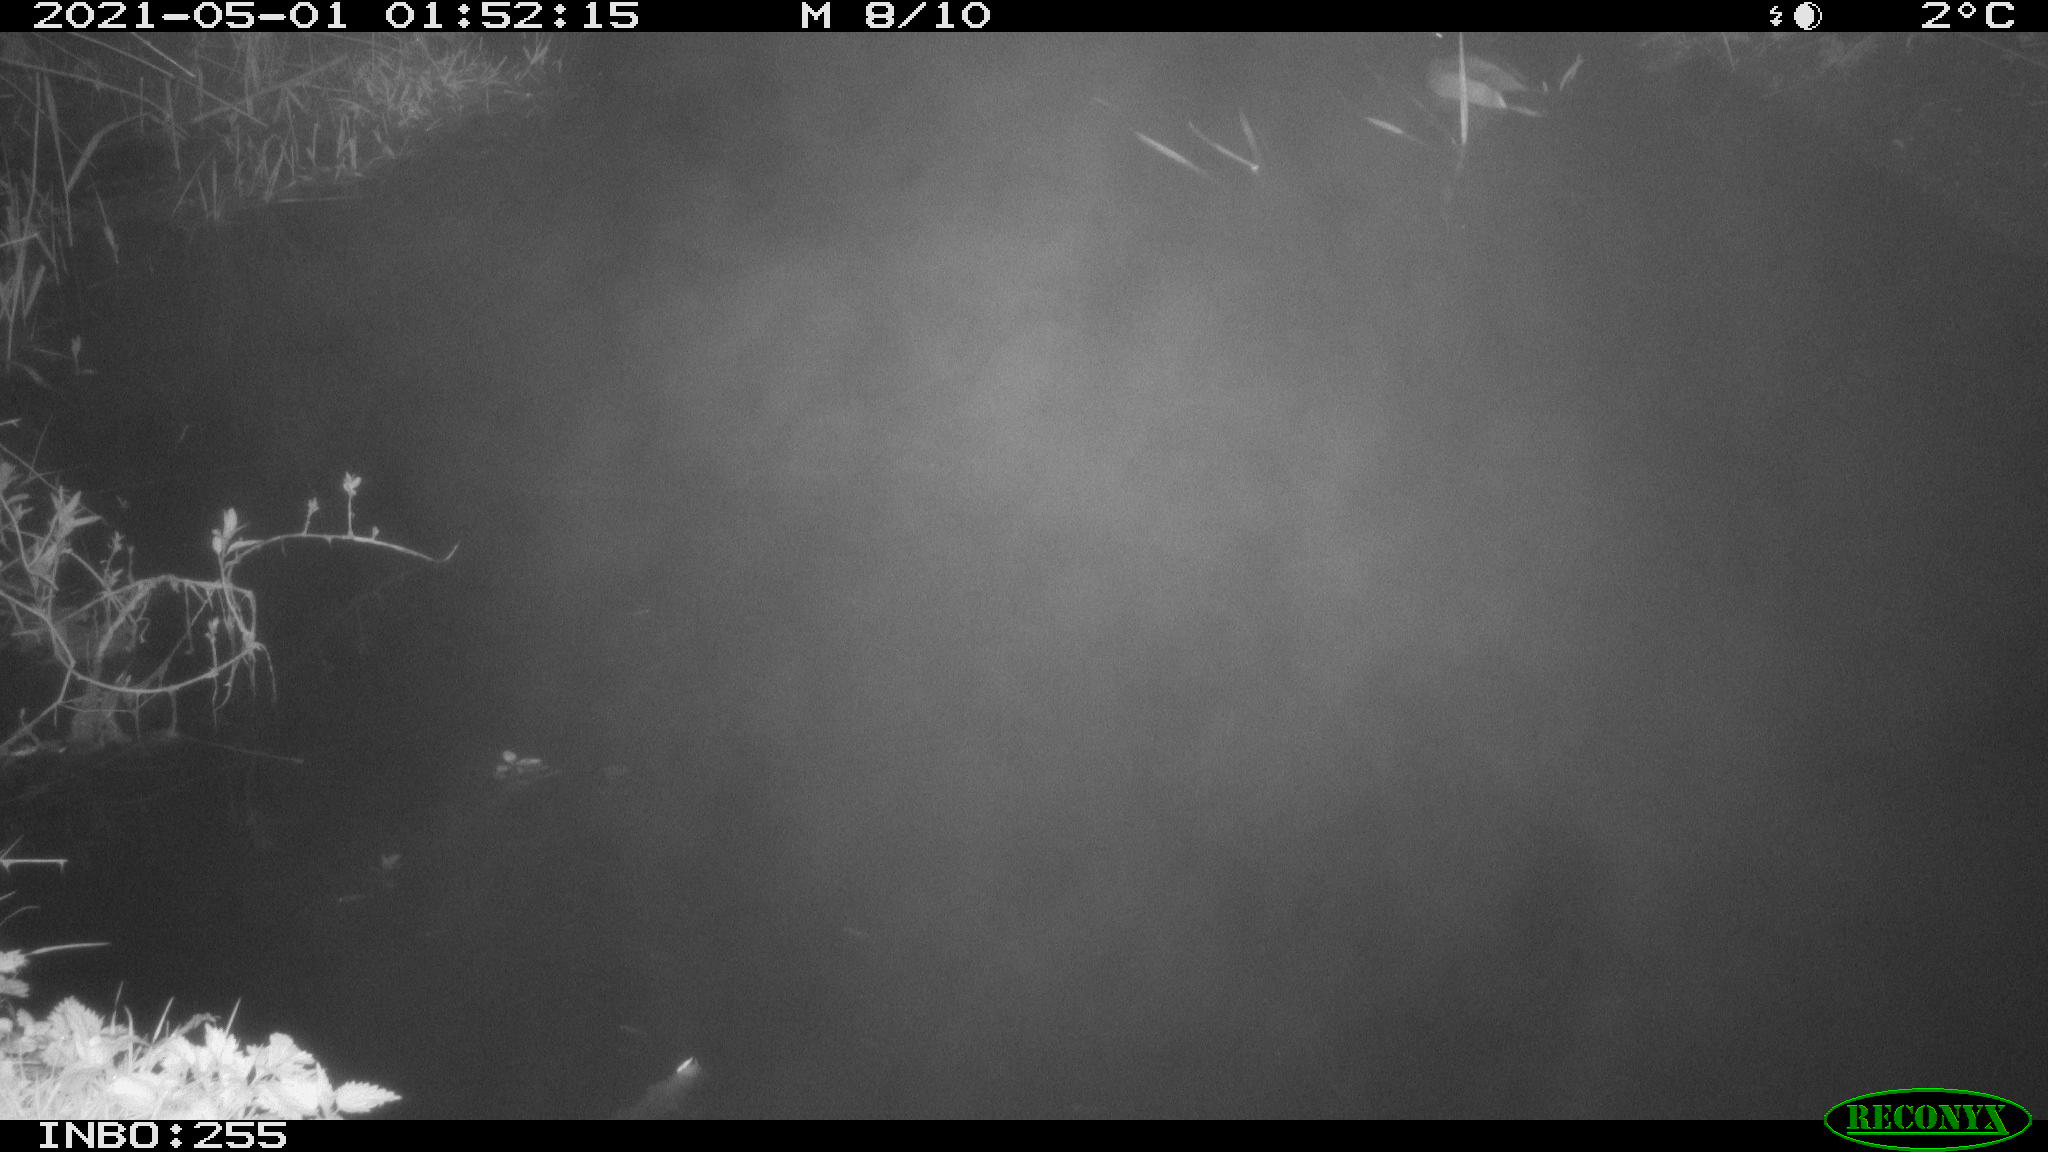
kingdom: Animalia
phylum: Chordata
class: Aves
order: Anseriformes
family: Anatidae
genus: Anas
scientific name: Anas platyrhynchos
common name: Mallard
